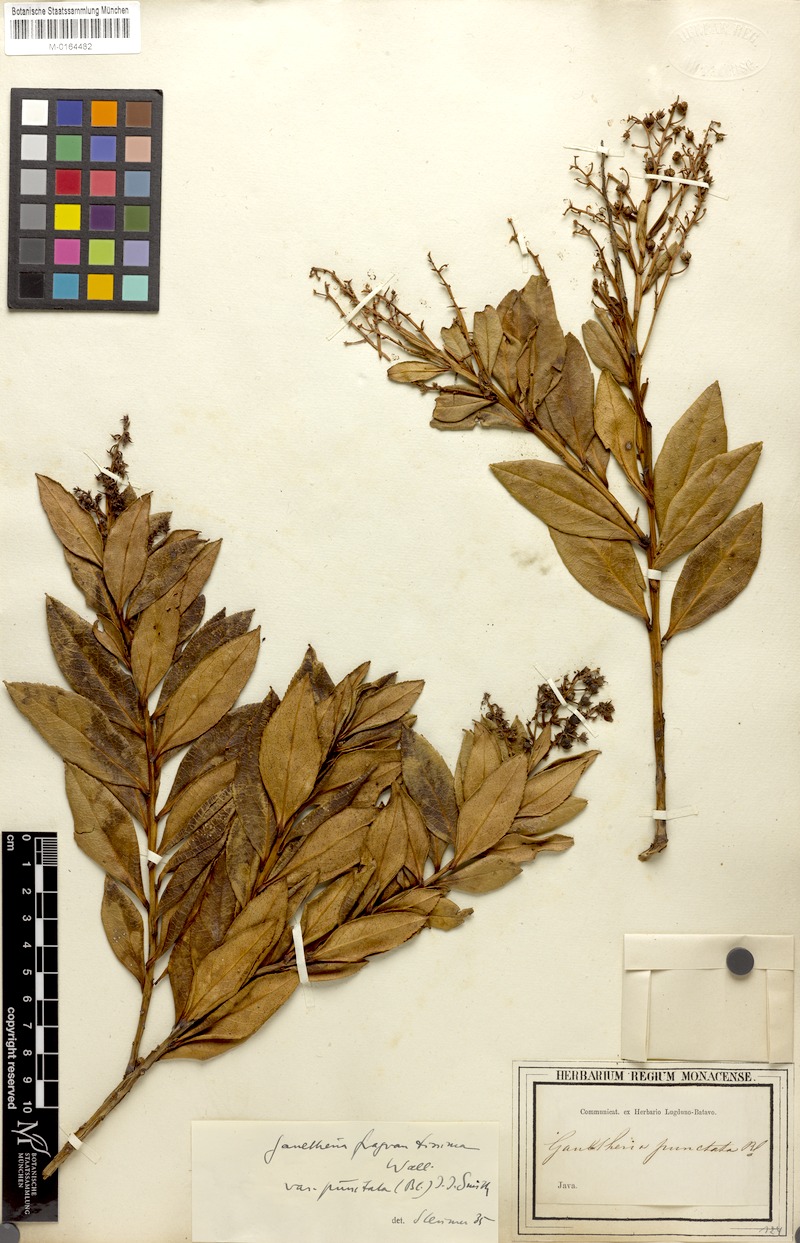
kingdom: Plantae
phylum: Tracheophyta
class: Magnoliopsida
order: Ericales
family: Ericaceae
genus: Gaultheria
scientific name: Gaultheria fragrantissima
